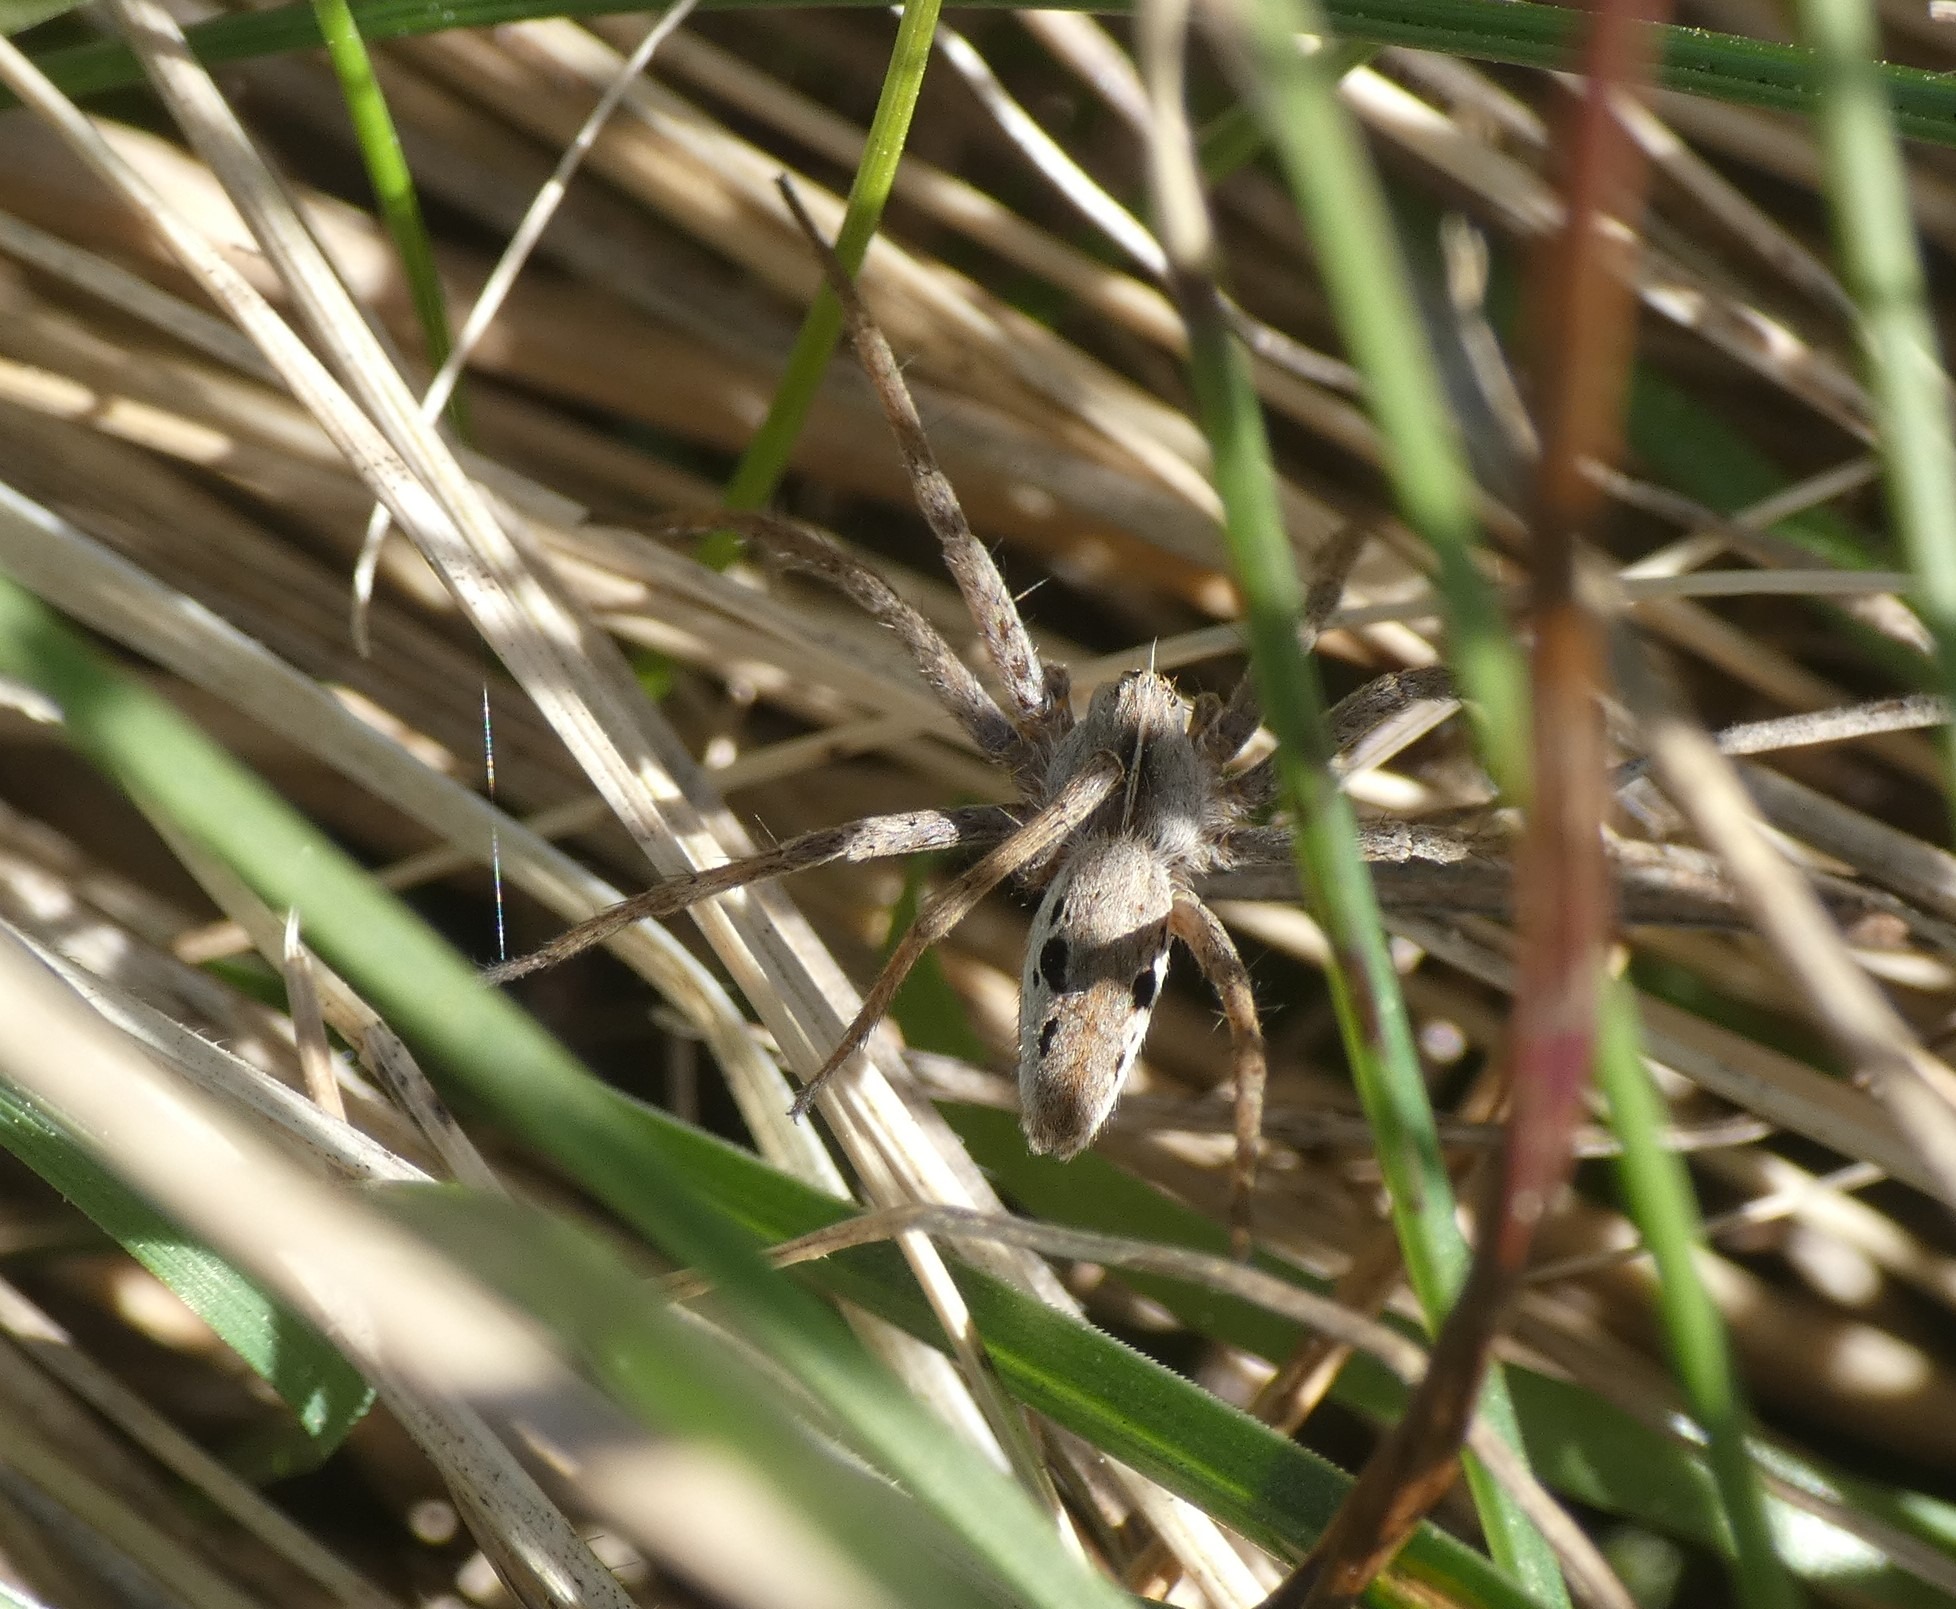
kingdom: Animalia
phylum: Arthropoda
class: Arachnida
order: Araneae
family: Pisauridae
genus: Pisaura
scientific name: Pisaura mirabilis
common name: Almindelig rovedderkop
